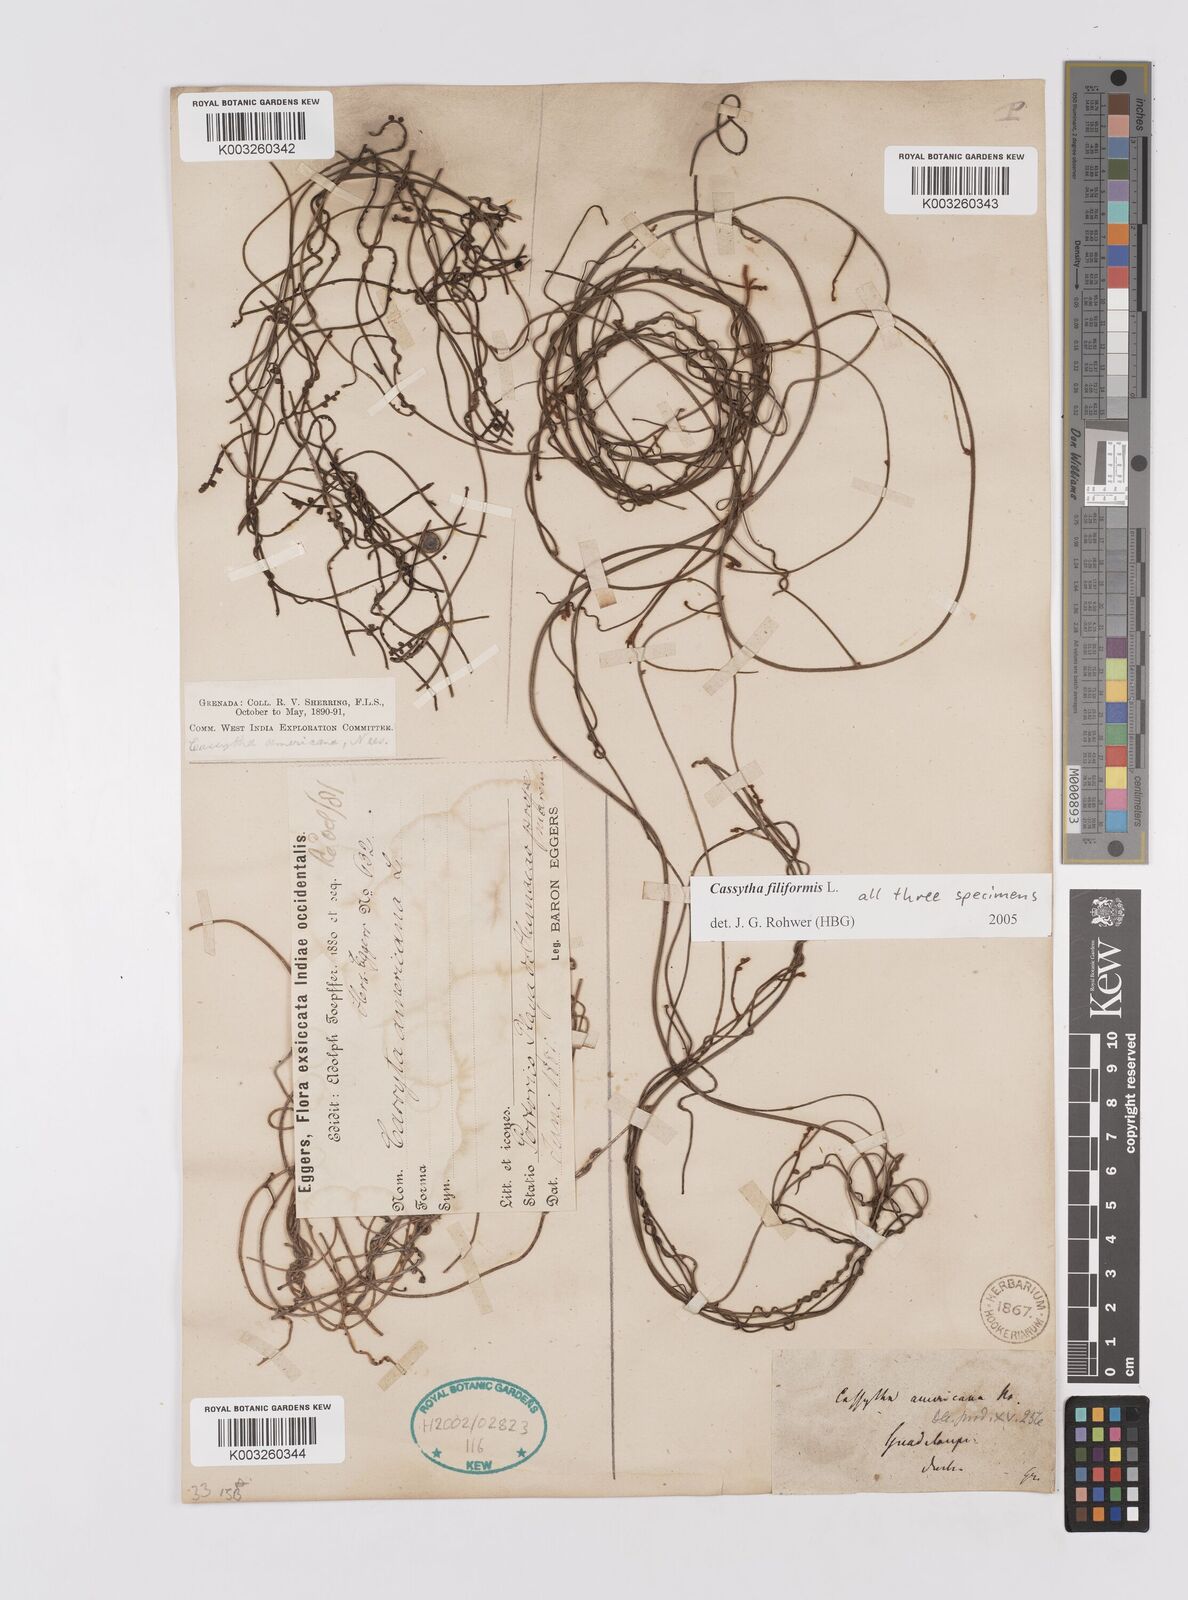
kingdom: Plantae
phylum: Tracheophyta
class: Magnoliopsida
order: Laurales
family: Lauraceae
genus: Cassytha
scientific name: Cassytha filiformis
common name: Dodder-laurel
